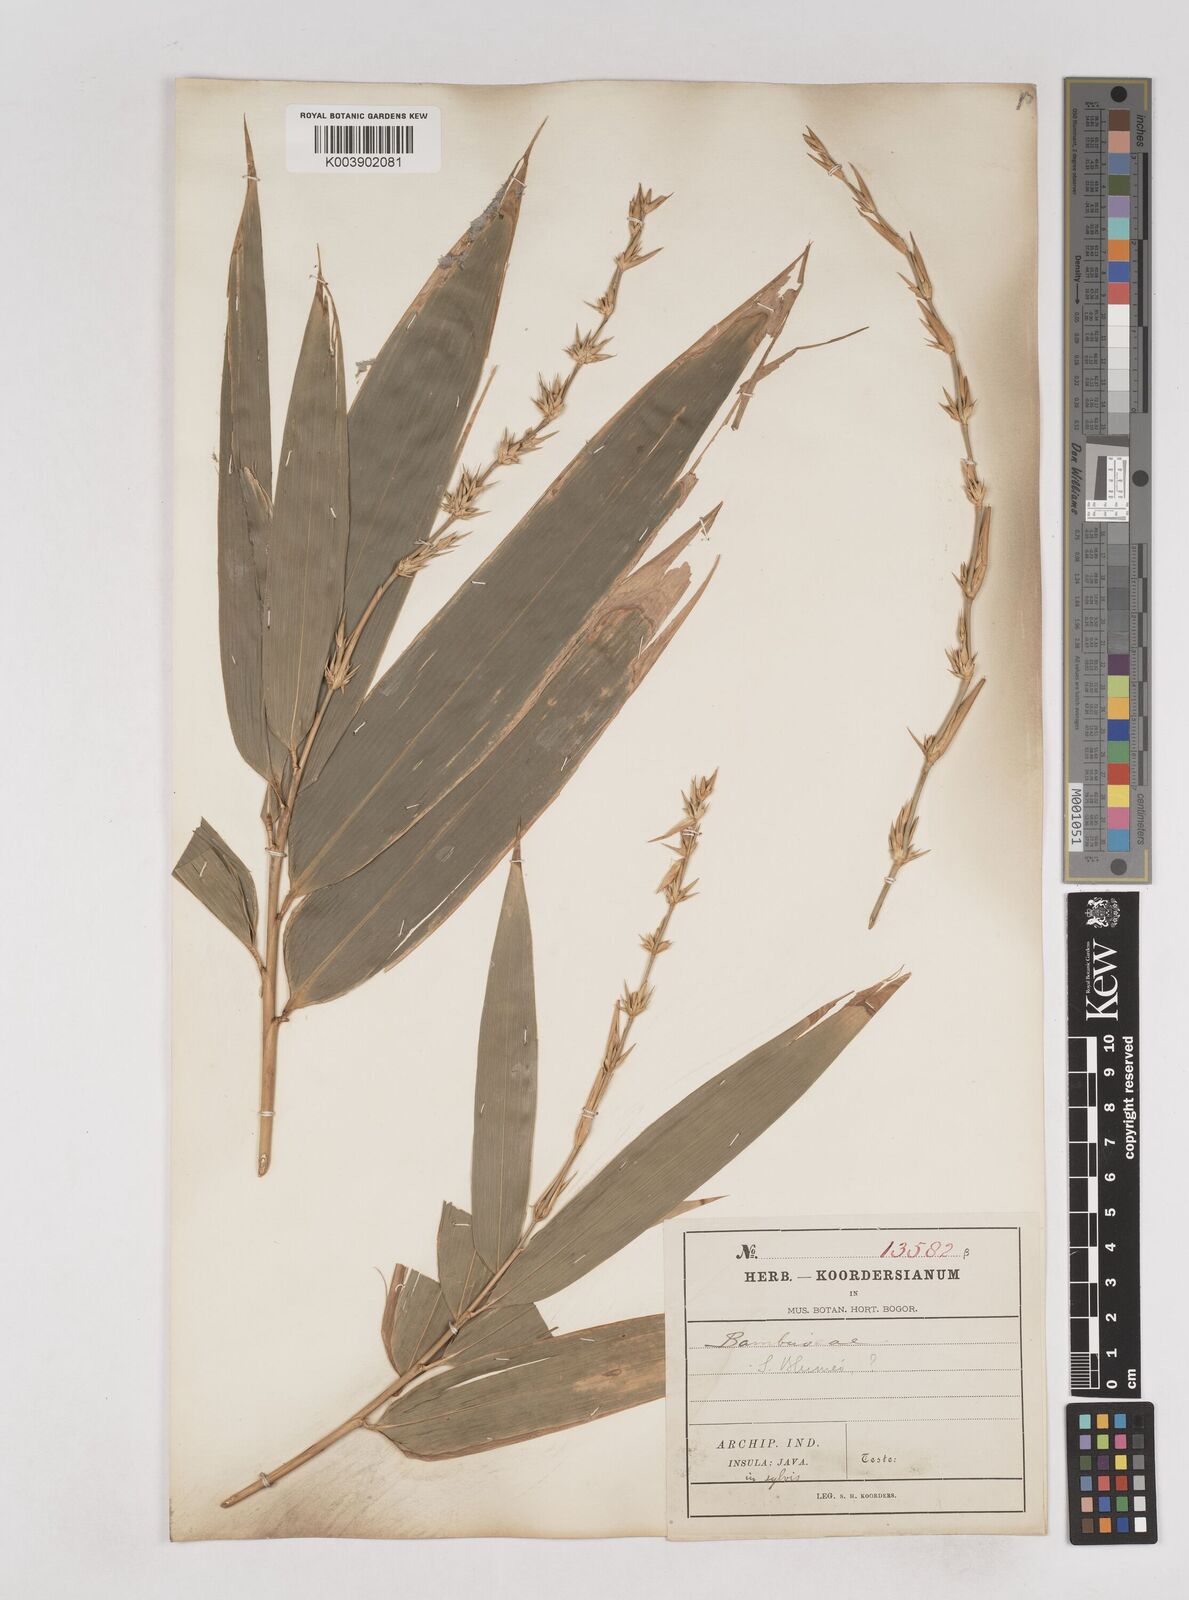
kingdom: Plantae
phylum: Tracheophyta
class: Liliopsida
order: Poales
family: Poaceae
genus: Schizostachyum
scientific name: Schizostachyum
